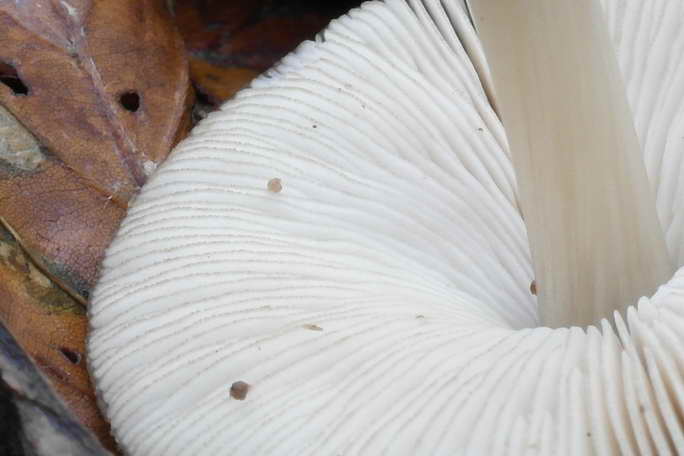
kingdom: Fungi
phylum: Basidiomycota
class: Agaricomycetes
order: Agaricales
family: Pluteaceae
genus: Pluteus
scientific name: Pluteus phlebophorus
